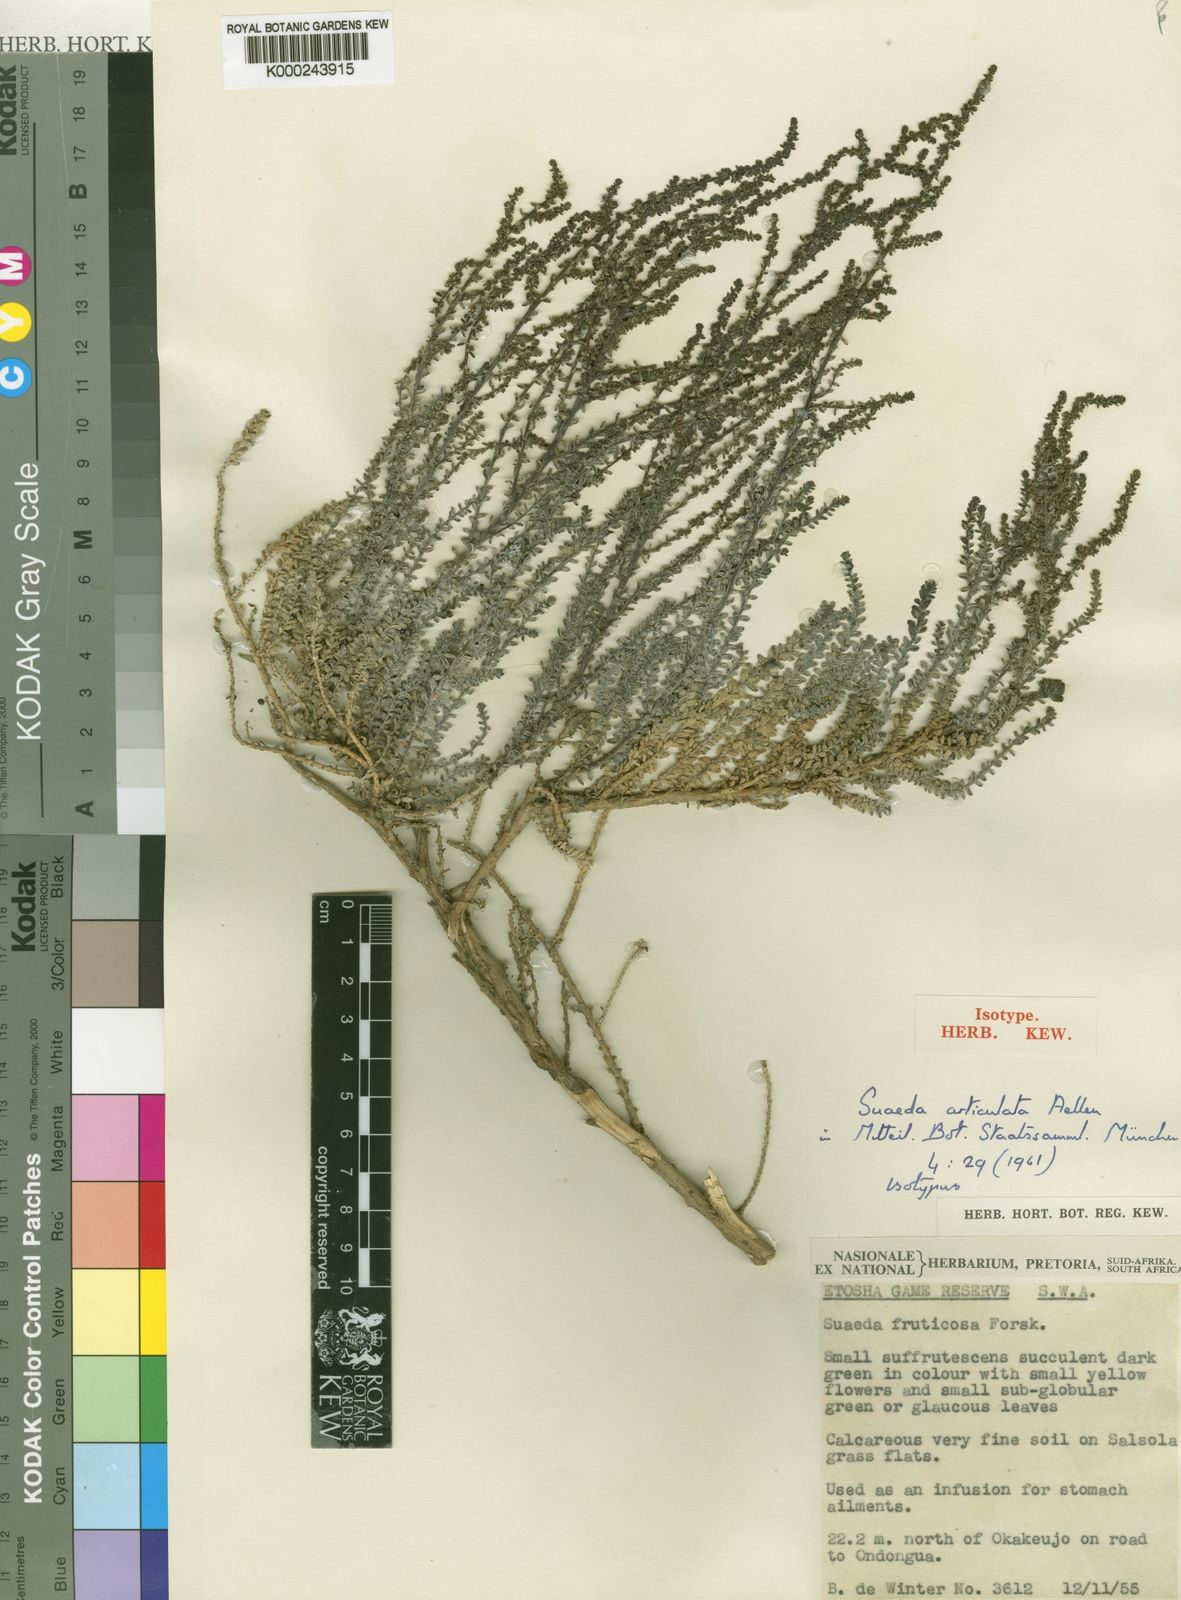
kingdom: Plantae
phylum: Tracheophyta
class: Magnoliopsida
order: Caryophyllales
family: Amaranthaceae
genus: Suaeda
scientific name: Suaeda articulata
